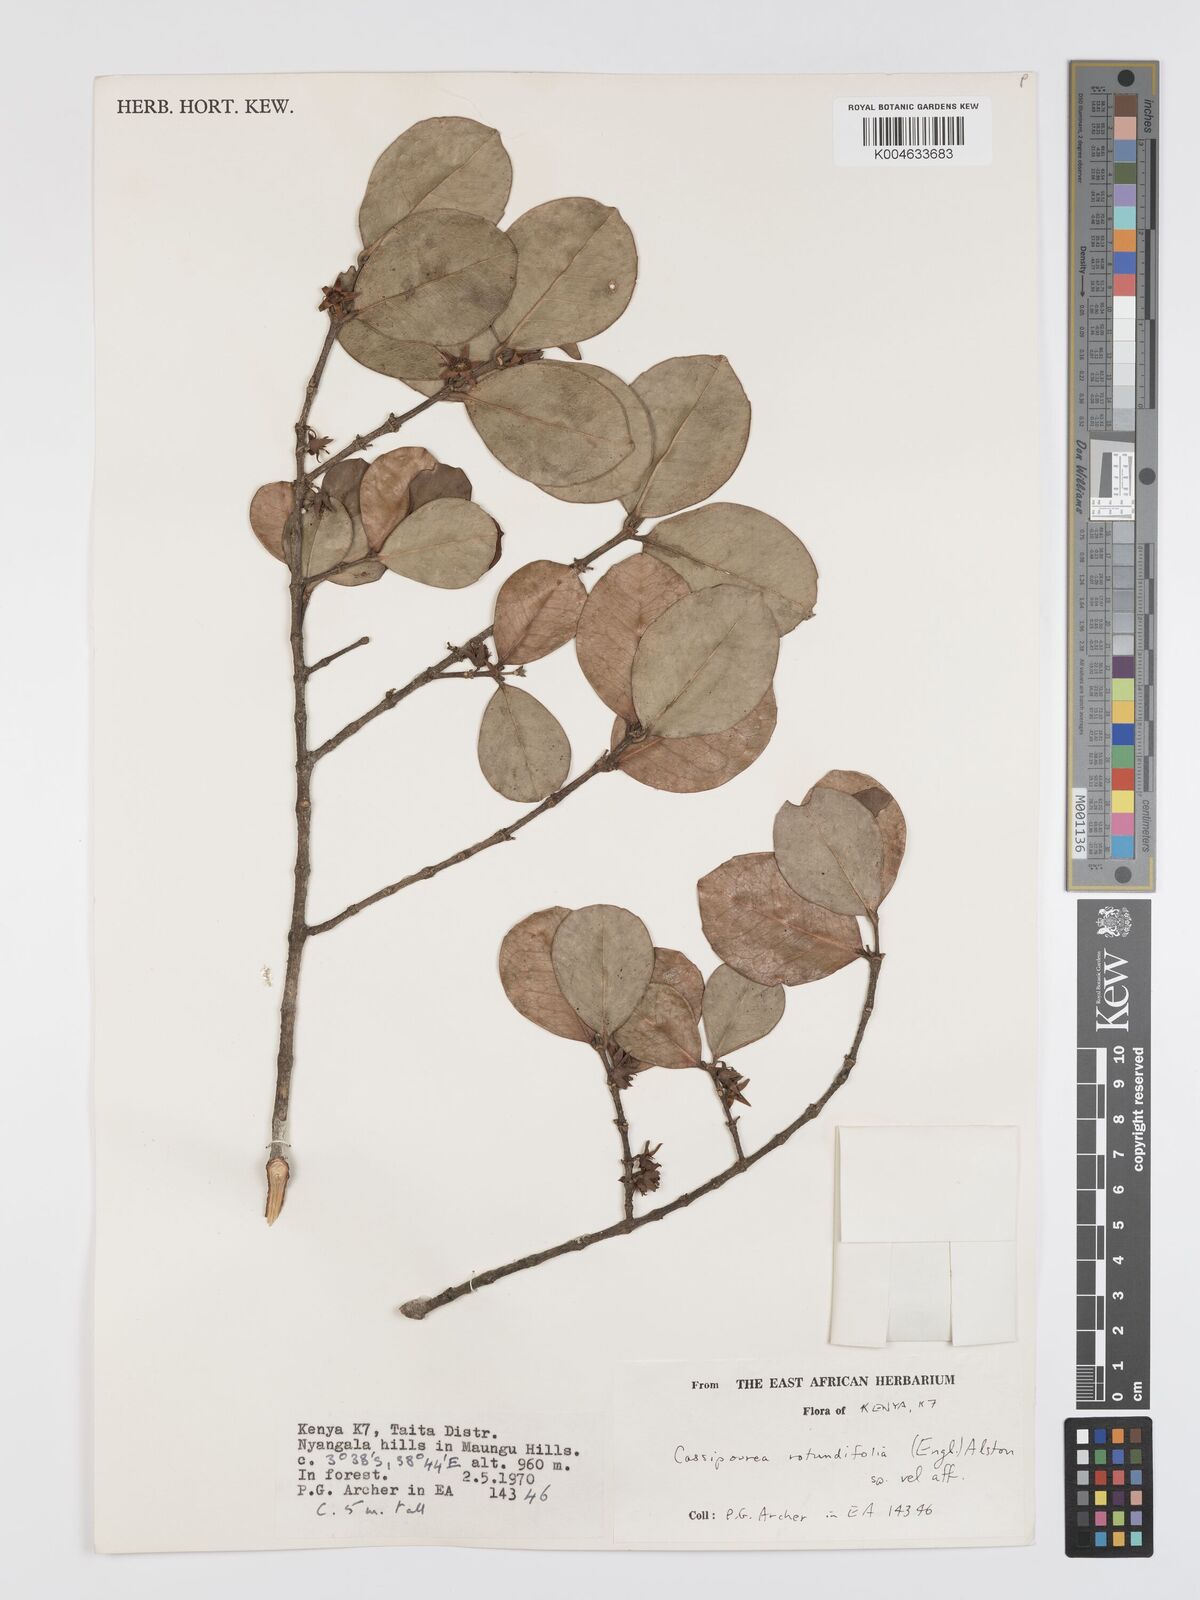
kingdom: Plantae
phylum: Tracheophyta
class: Magnoliopsida
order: Malpighiales
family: Rhizophoraceae
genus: Cassipourea
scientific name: Cassipourea rotundifolia
